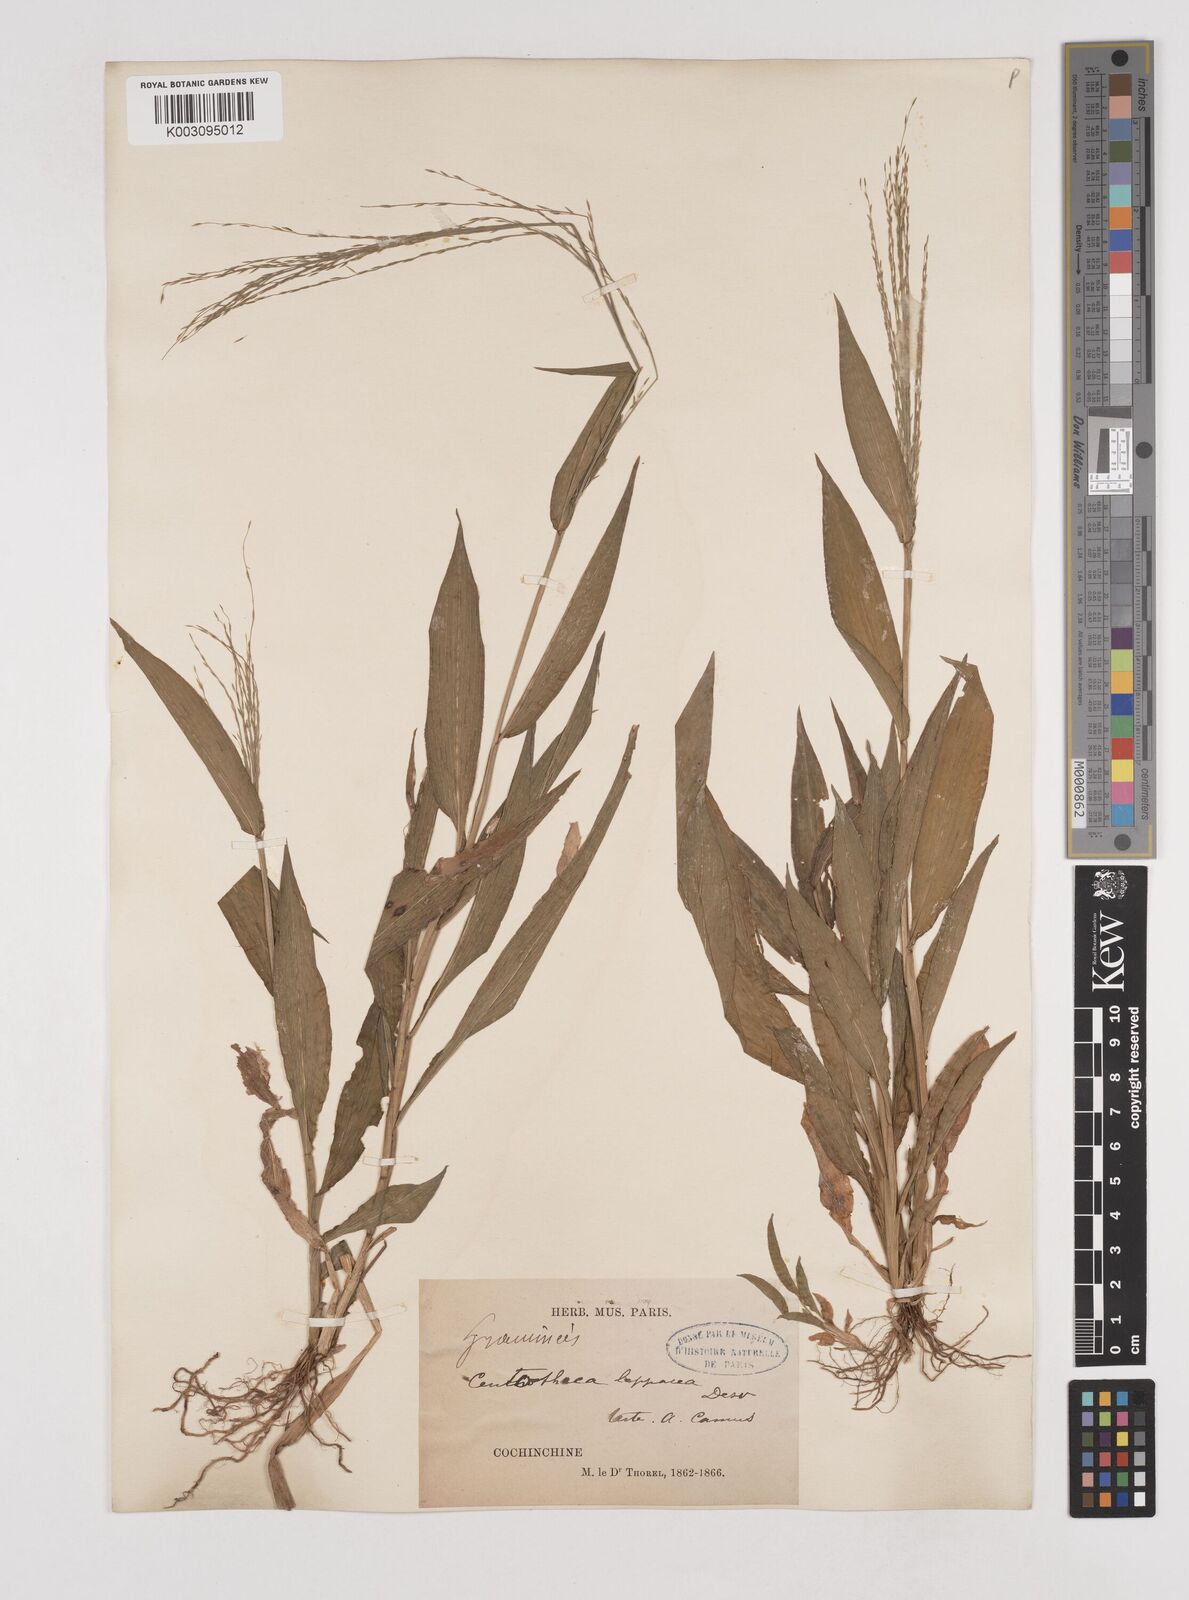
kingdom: Plantae
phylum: Tracheophyta
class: Liliopsida
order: Poales
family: Poaceae
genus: Centotheca
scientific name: Centotheca lappacea
